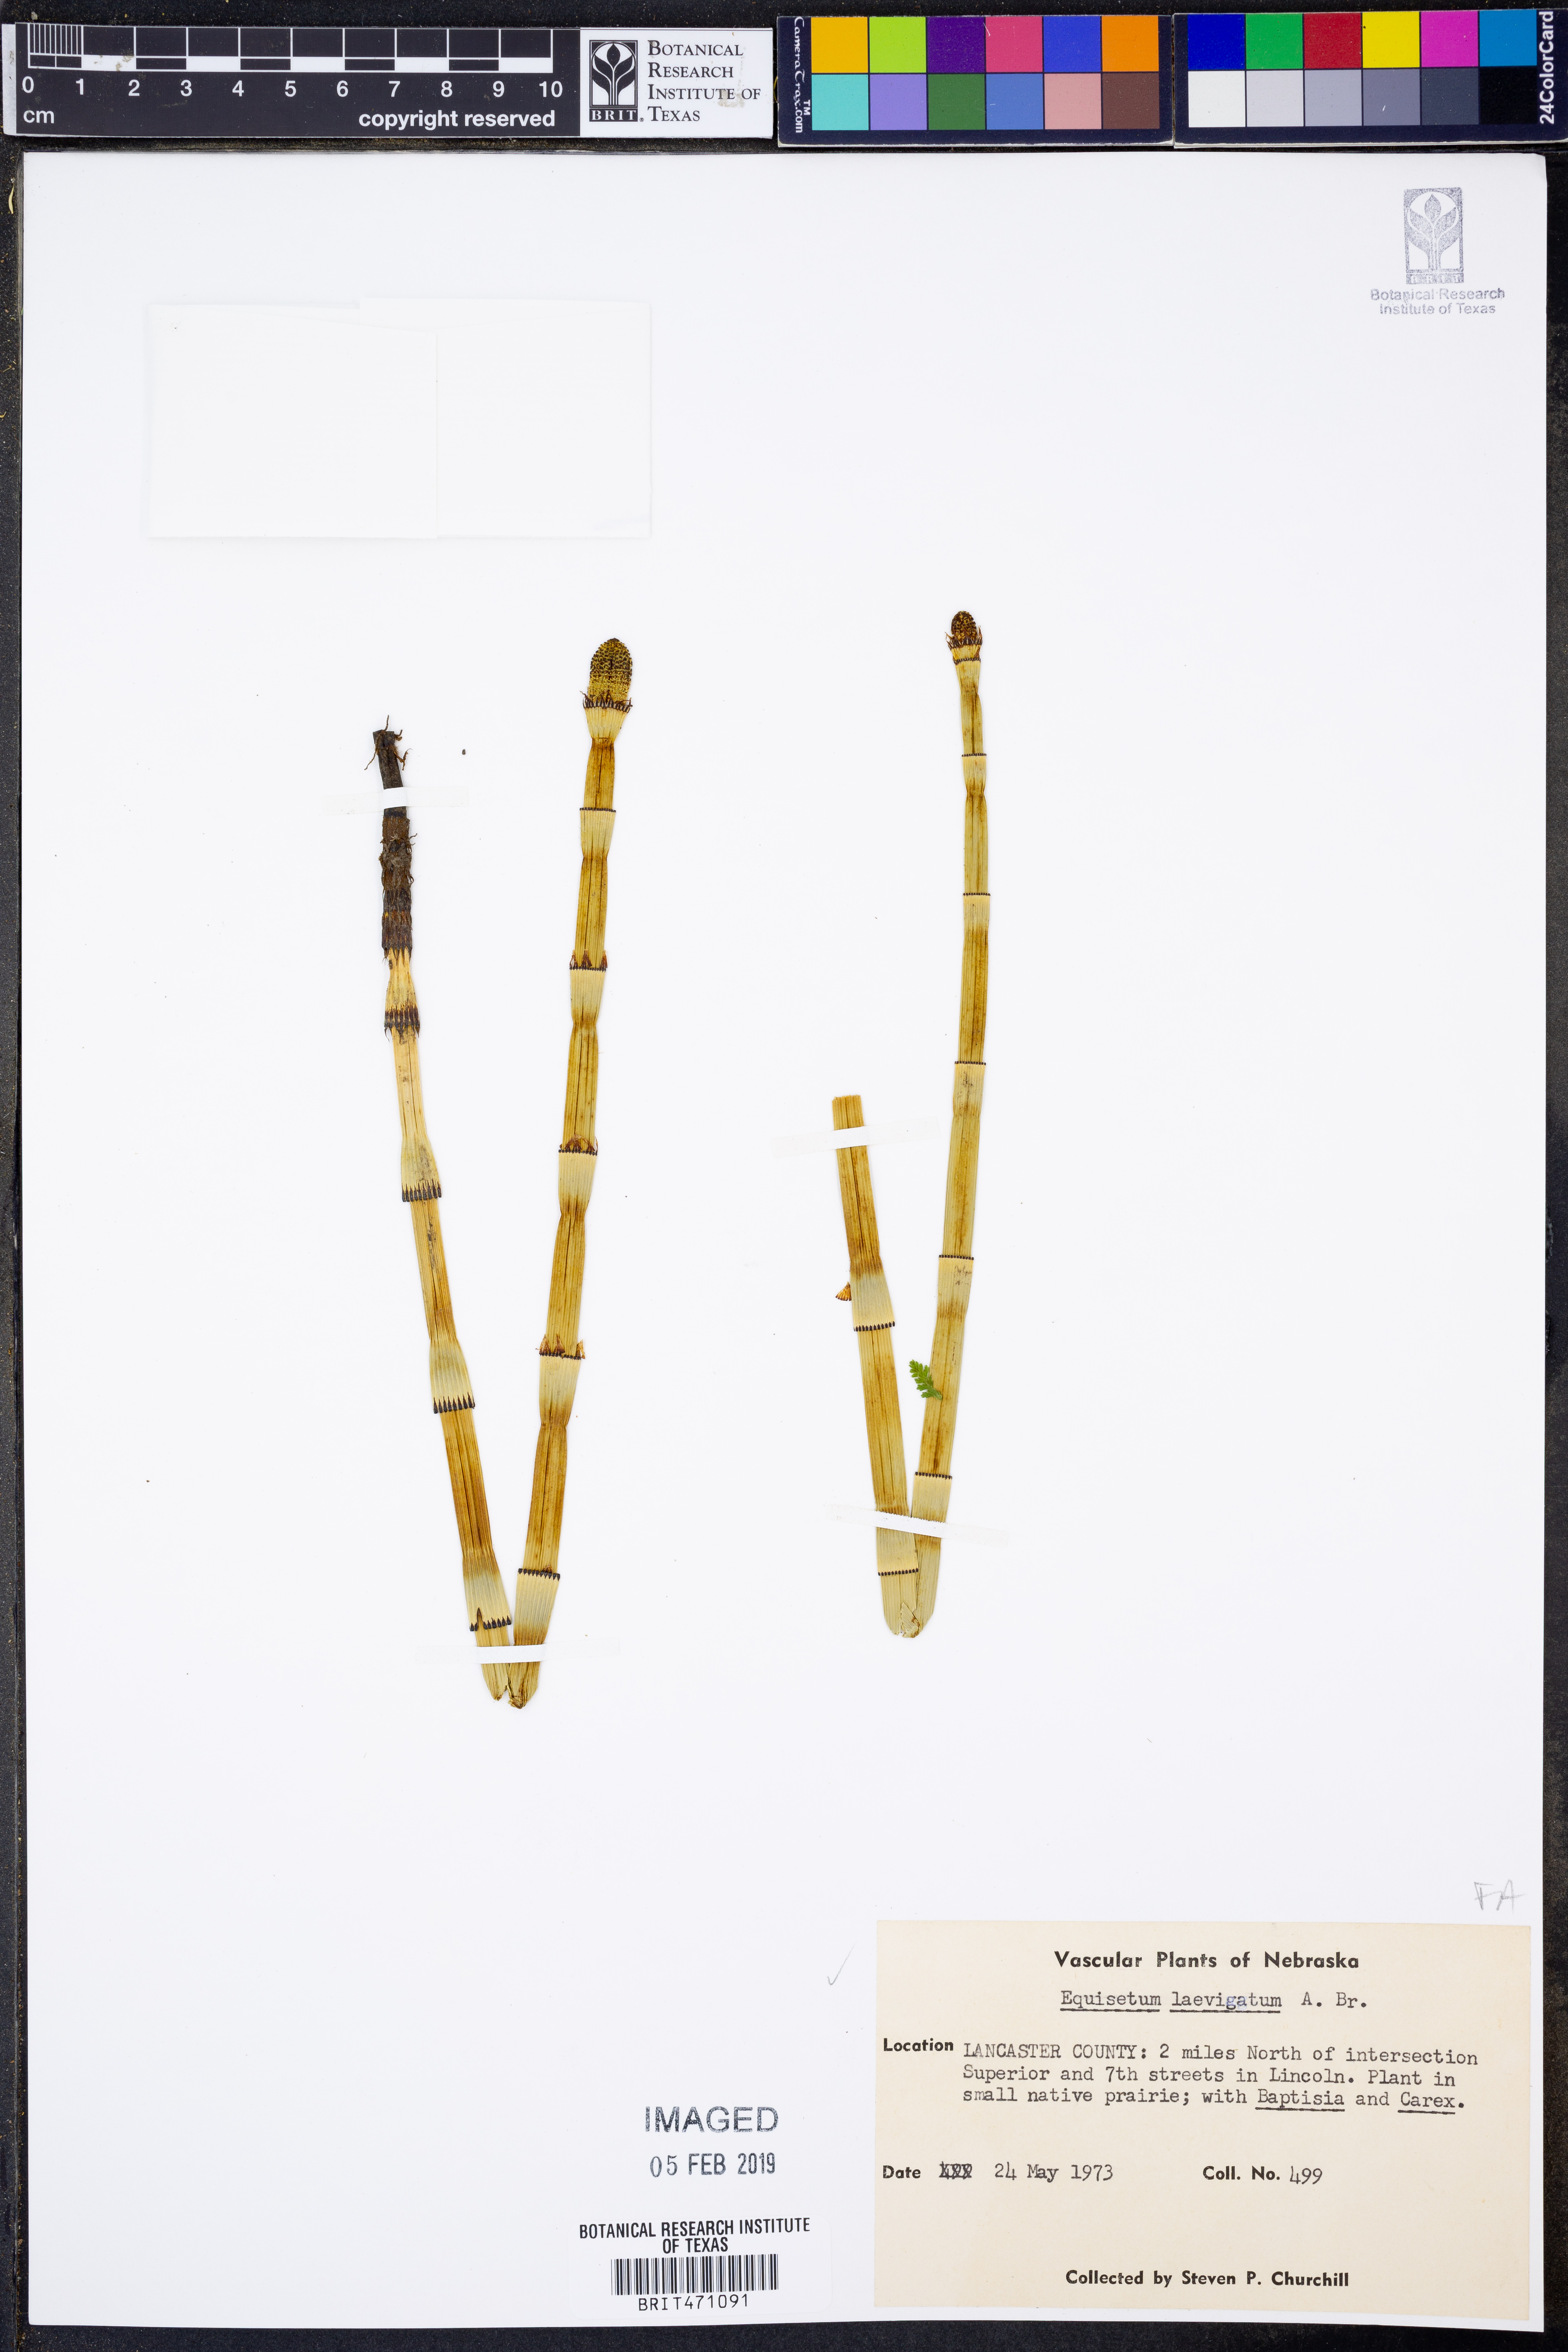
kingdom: Plantae
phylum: Tracheophyta
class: Polypodiopsida
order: Equisetales
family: Equisetaceae
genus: Equisetum
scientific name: Equisetum laevigatum
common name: Smooth scouring-rush
